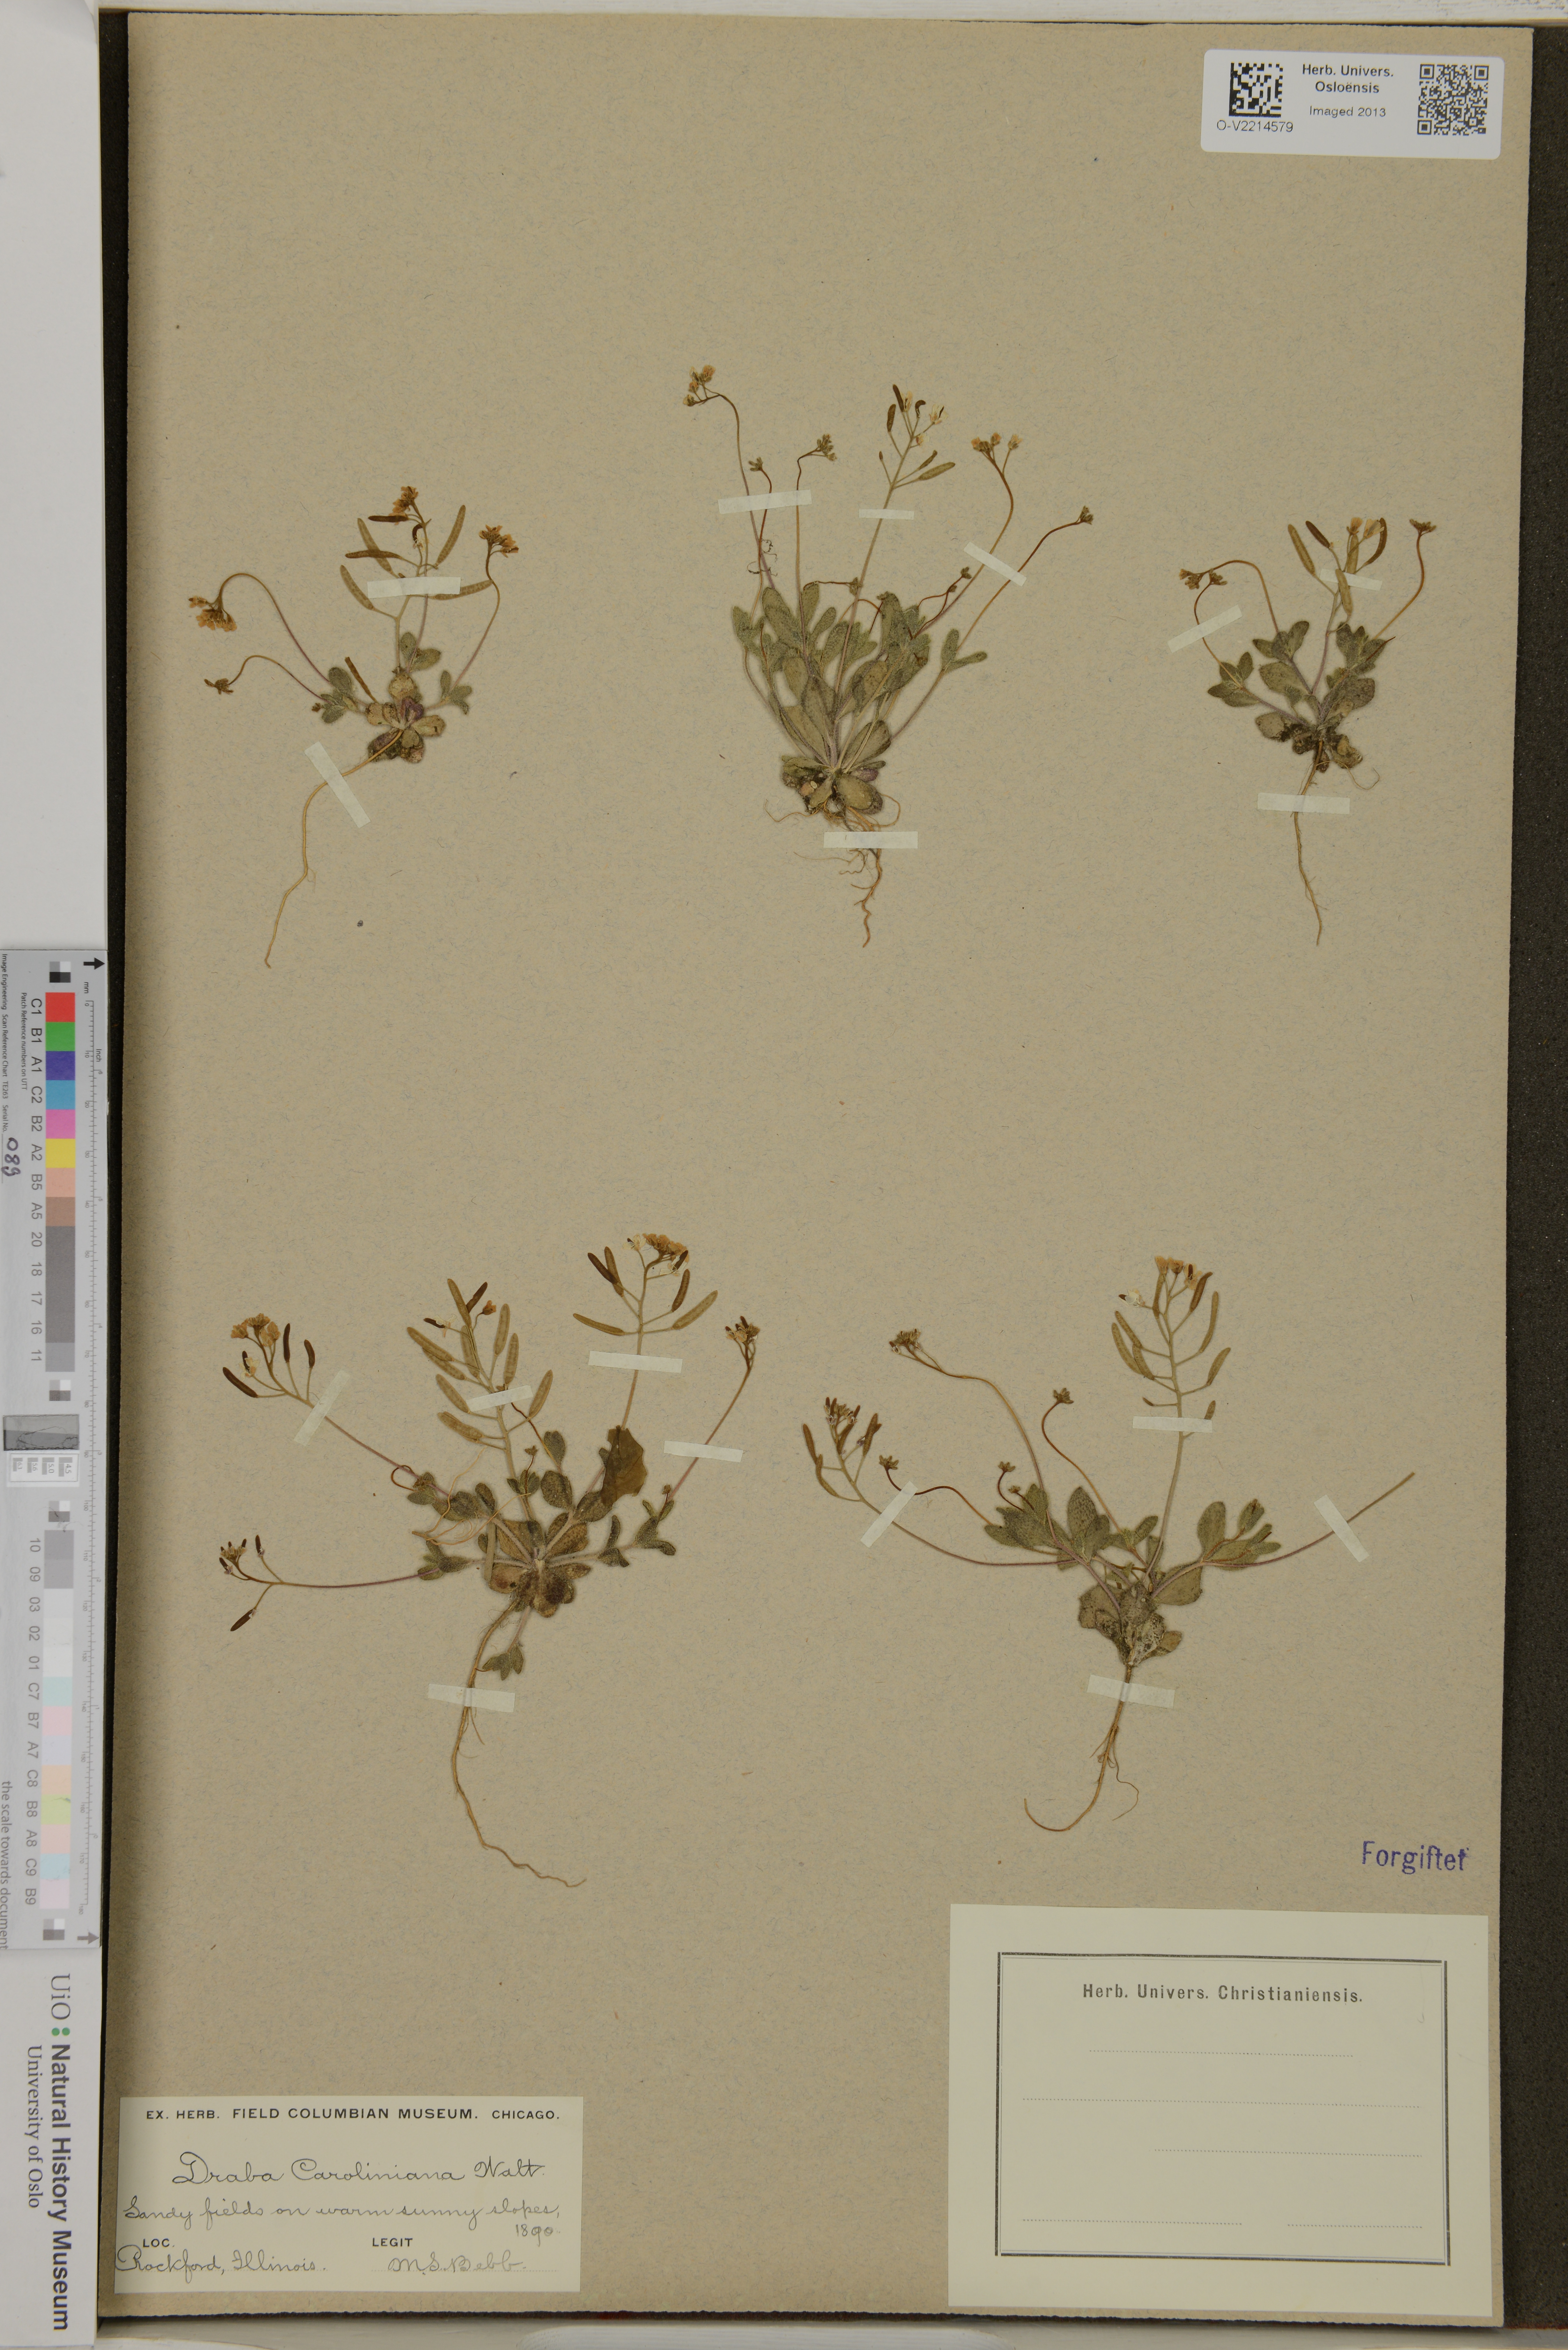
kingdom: Plantae
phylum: Tracheophyta
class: Magnoliopsida
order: Brassicales
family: Brassicaceae
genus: Tomostima
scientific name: Tomostima reptans
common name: Carolina draba
